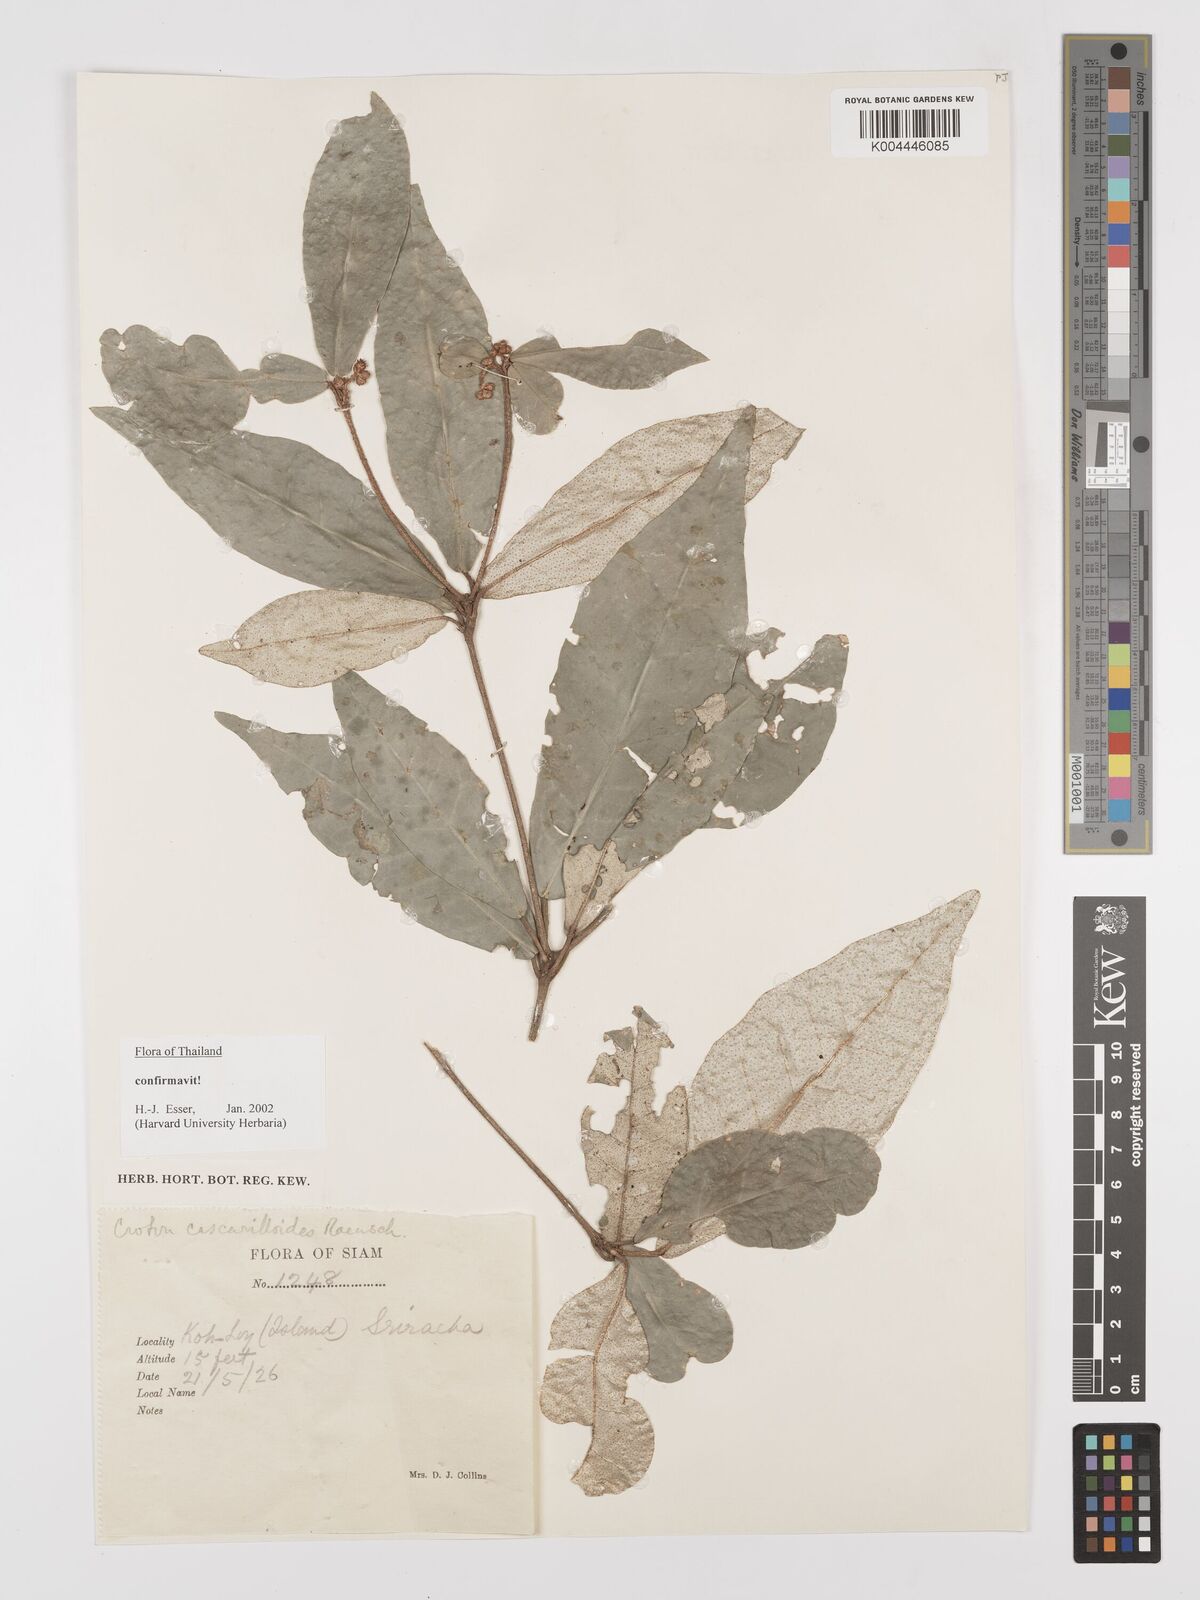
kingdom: Plantae
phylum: Tracheophyta
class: Magnoliopsida
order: Malpighiales
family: Euphorbiaceae
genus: Croton
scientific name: Croton cascarilloides
